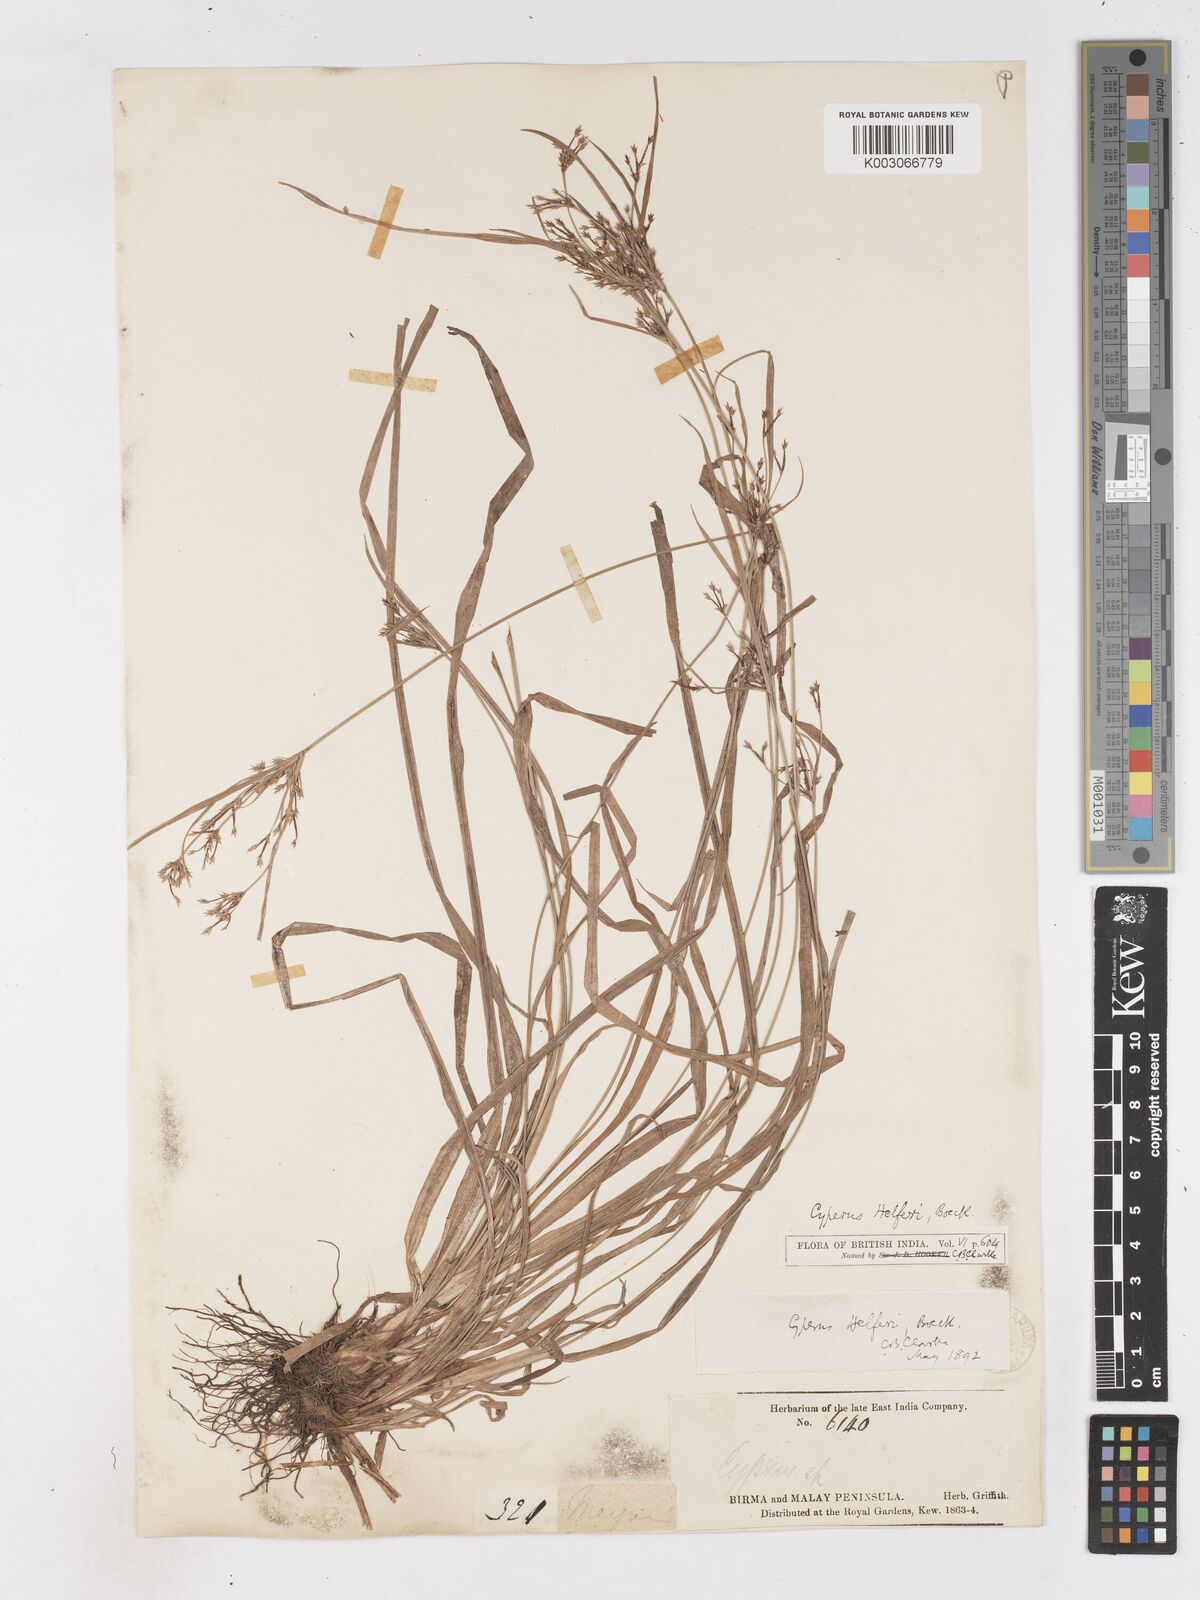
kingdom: Plantae
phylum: Tracheophyta
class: Liliopsida
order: Poales
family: Cyperaceae
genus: Cyperus
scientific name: Cyperus helferi
